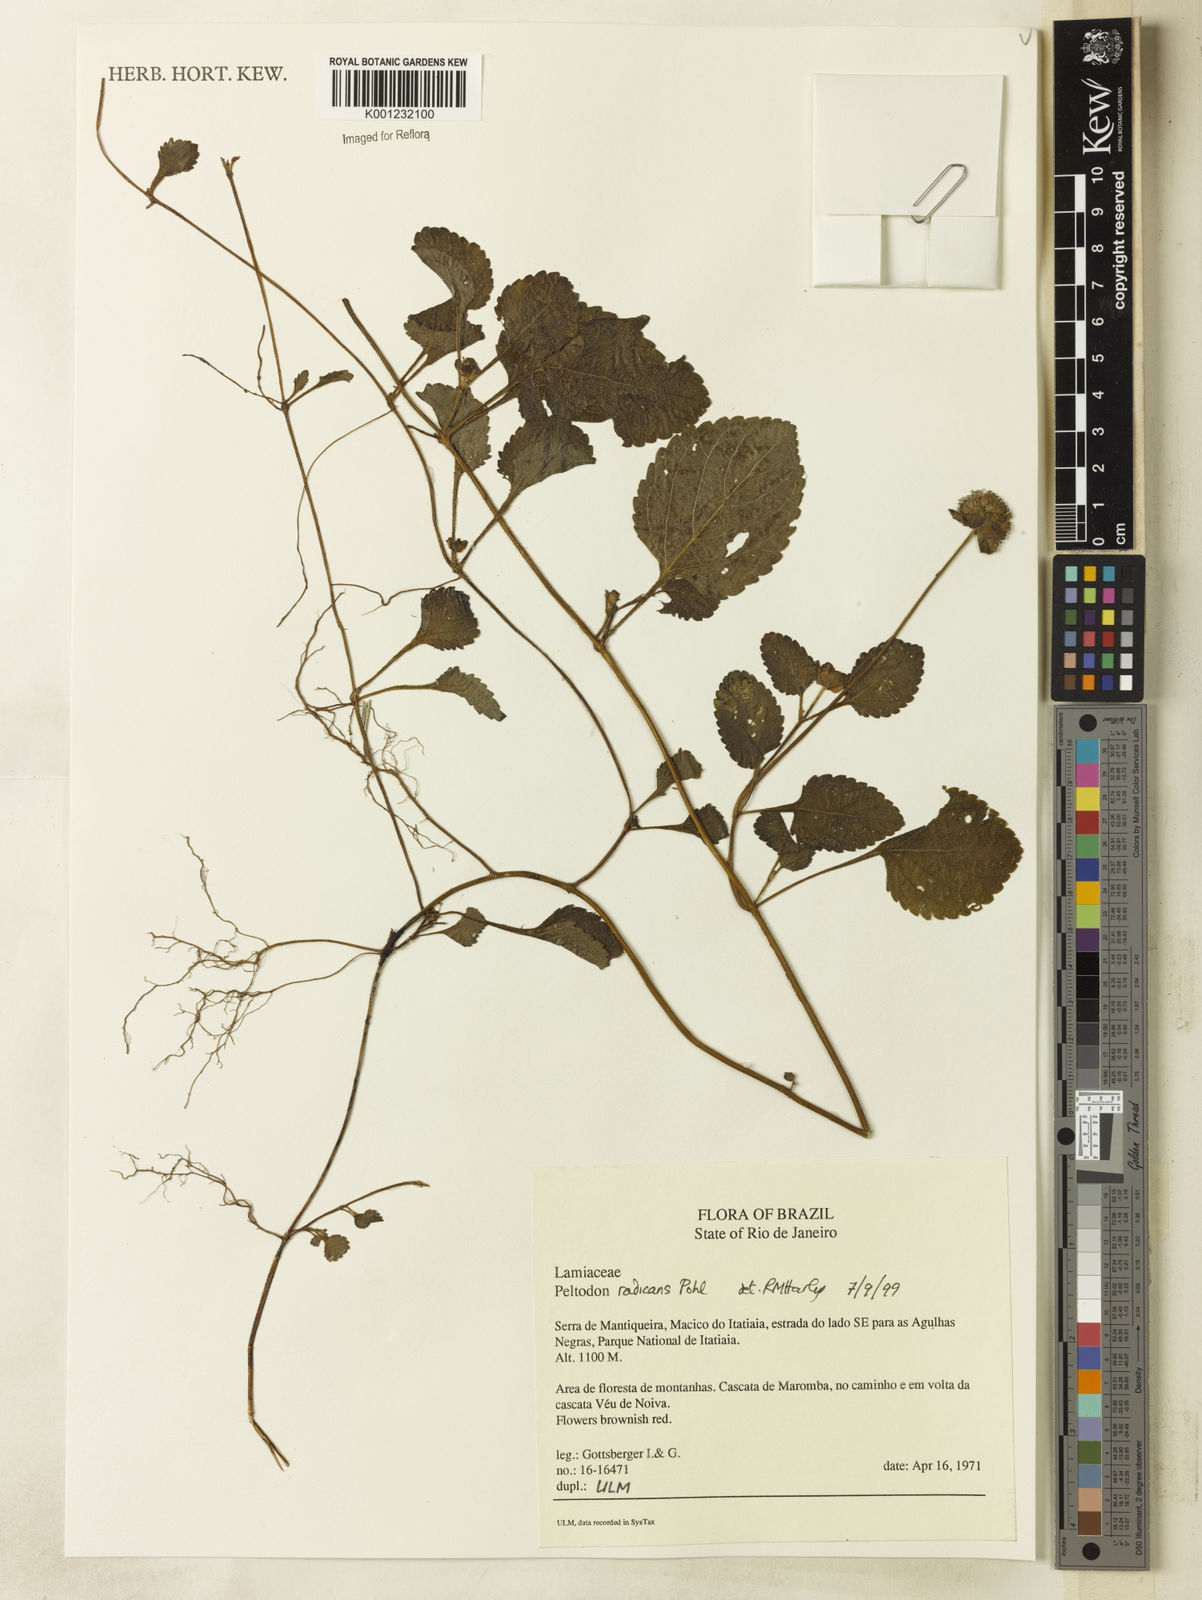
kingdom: Plantae
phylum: Tracheophyta
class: Magnoliopsida
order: Lamiales
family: Lamiaceae
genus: Hyptis
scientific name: Hyptis radicans
